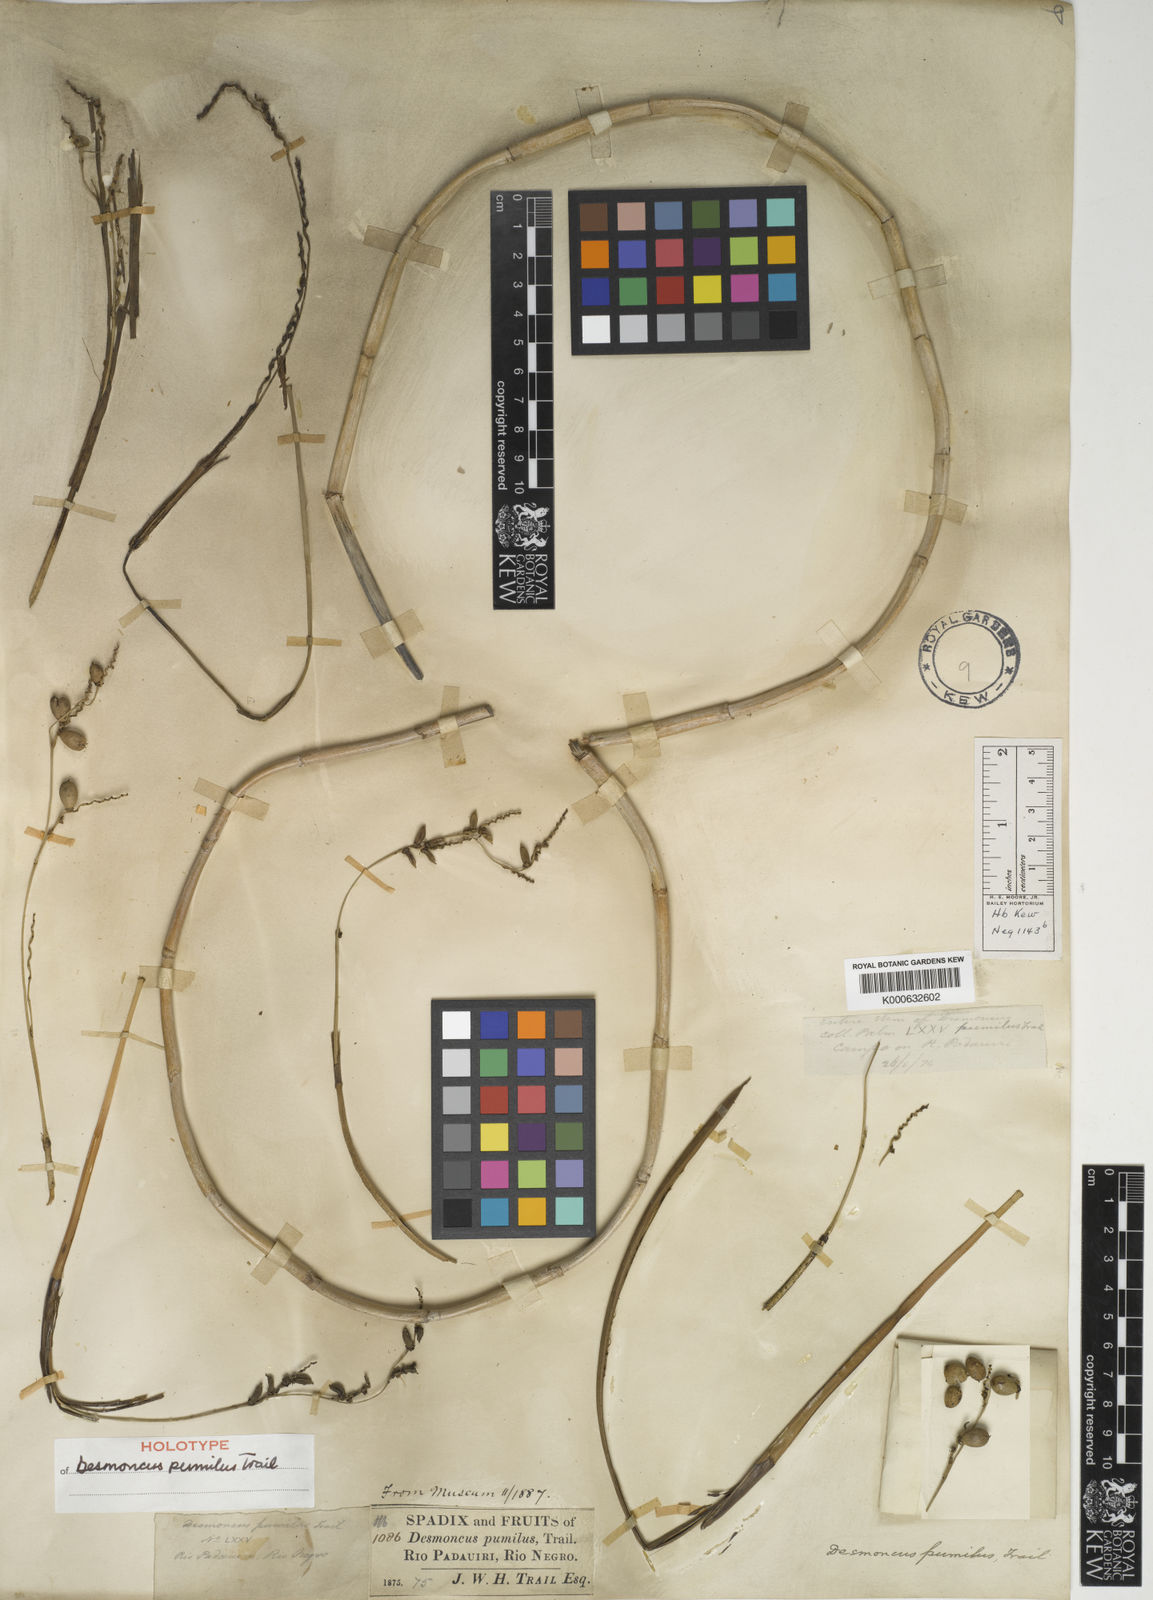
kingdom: Plantae
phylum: Tracheophyta
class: Liliopsida
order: Arecales
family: Arecaceae
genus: Desmoncus
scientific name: Desmoncus pumilus
